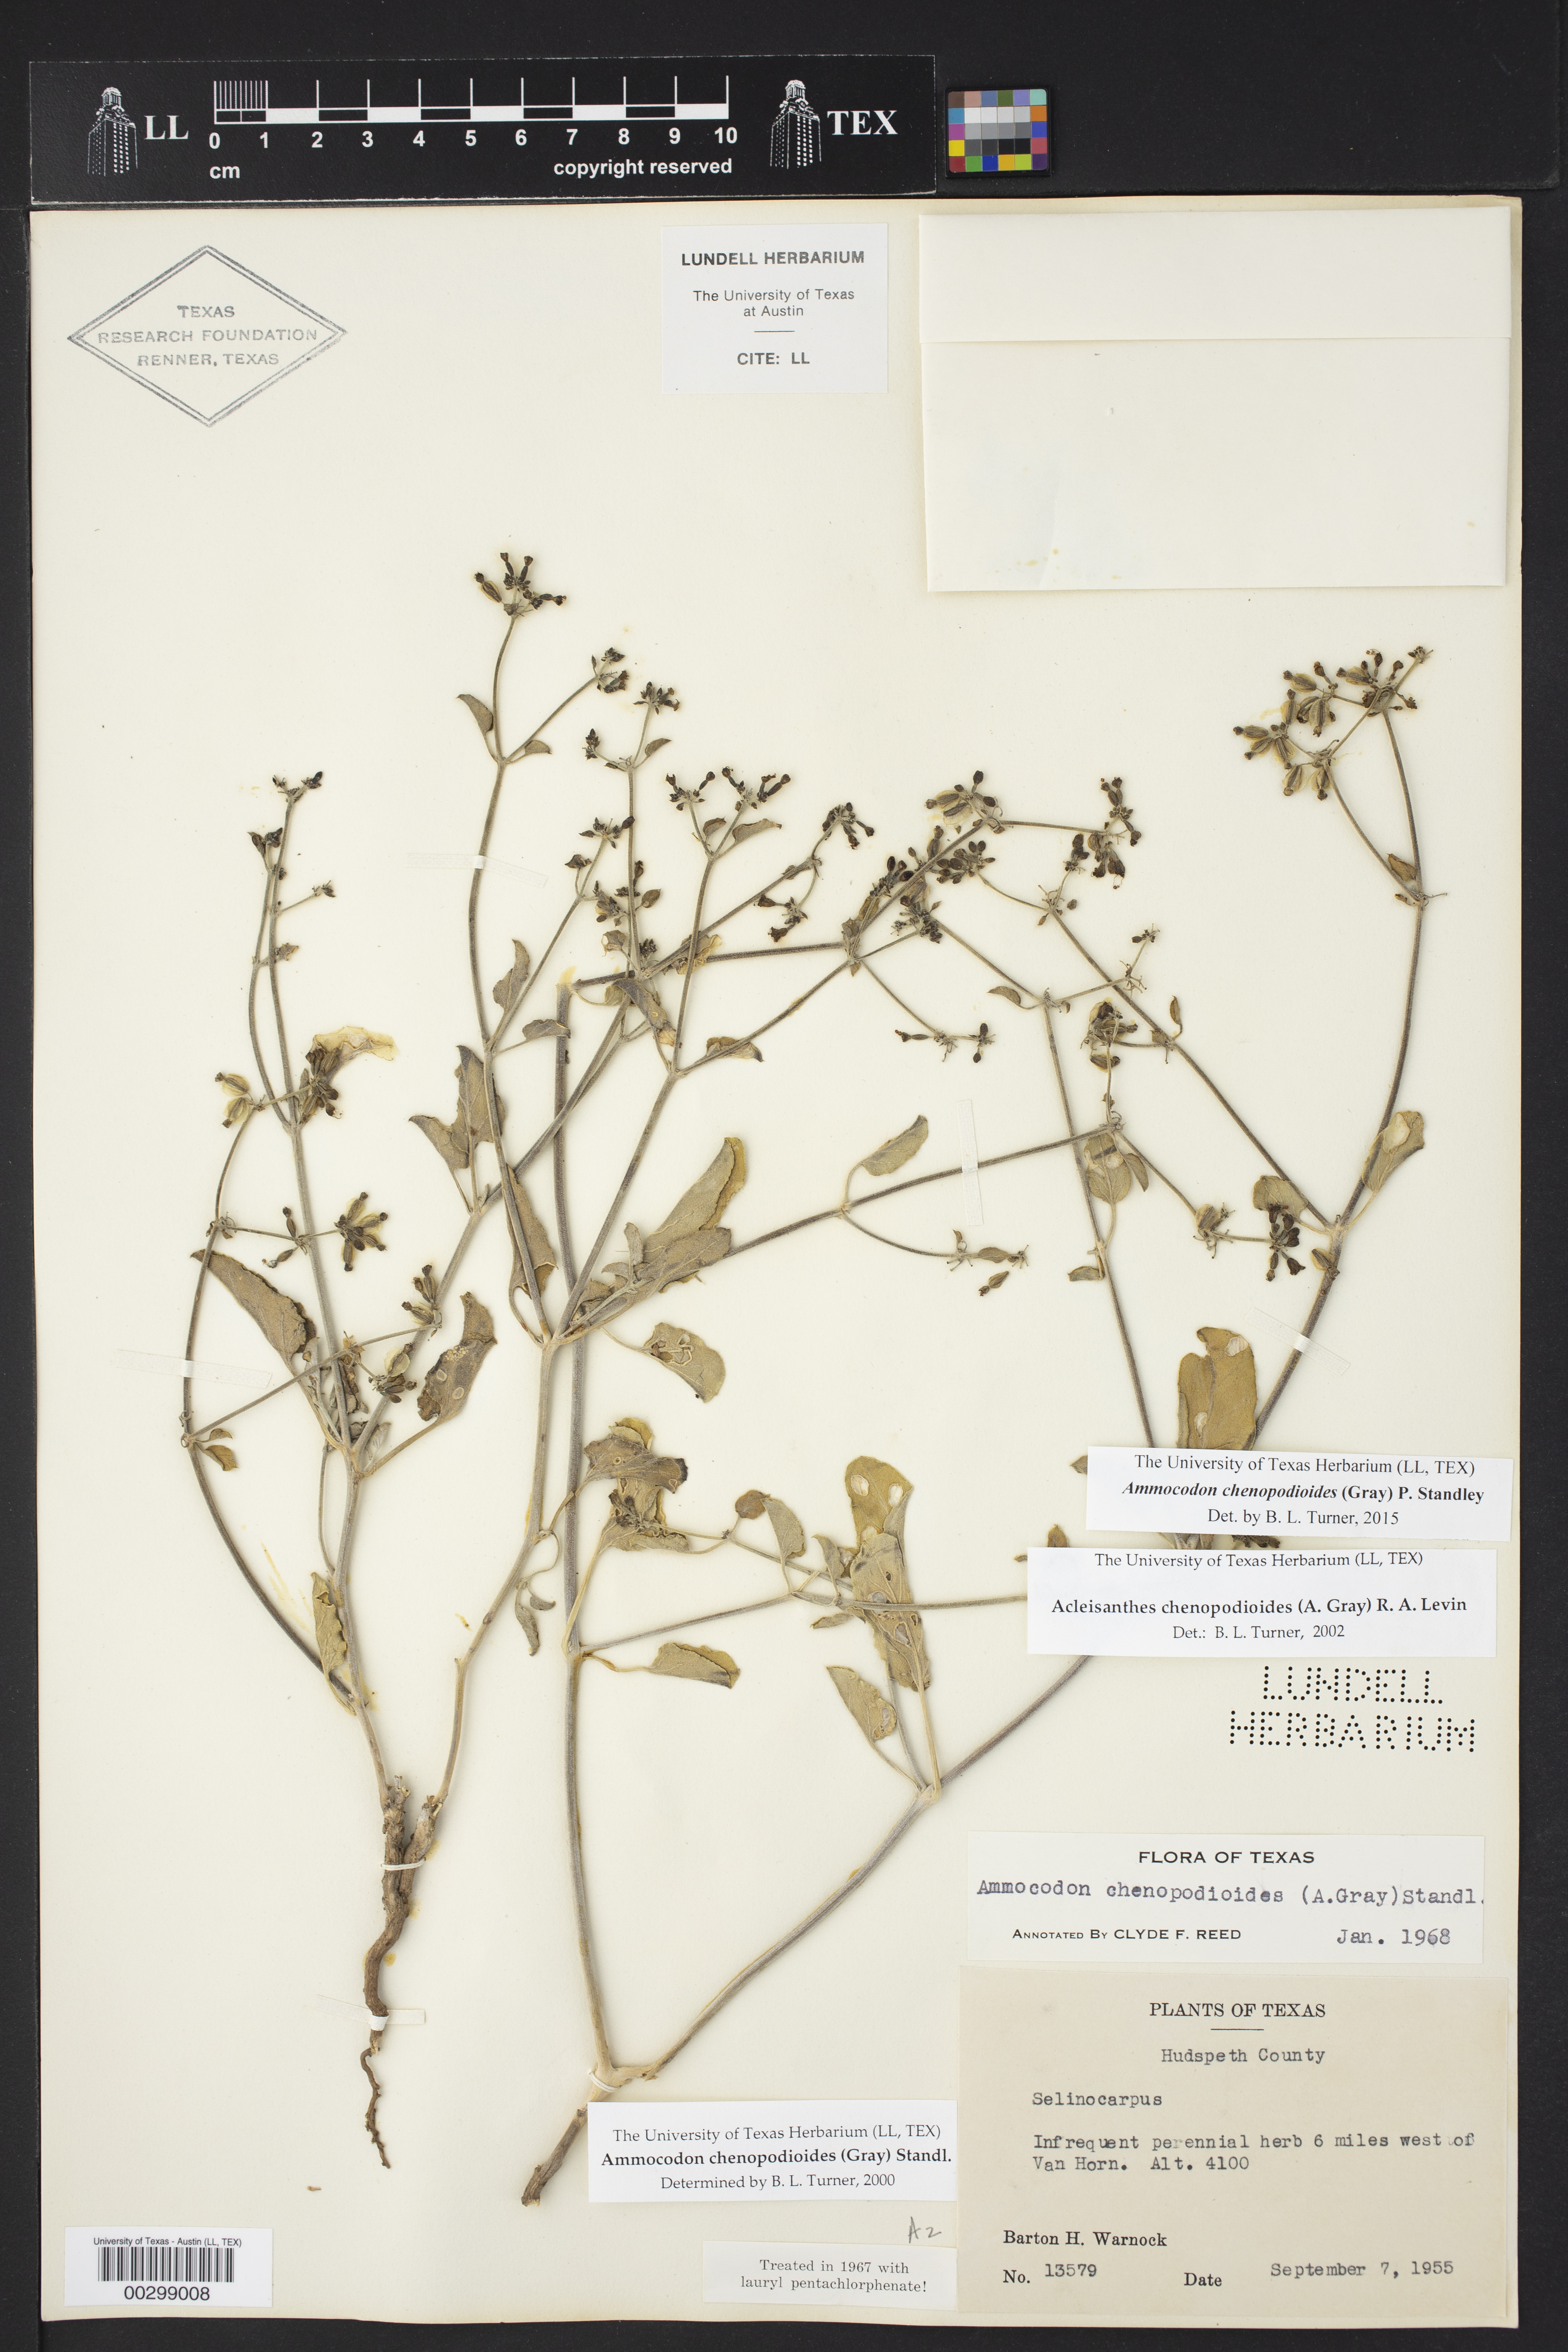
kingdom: Plantae
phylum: Tracheophyta
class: Magnoliopsida
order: Caryophyllales
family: Nyctaginaceae
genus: Acleisanthes
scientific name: Acleisanthes chenopodioides
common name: Goosefoot moonpod
